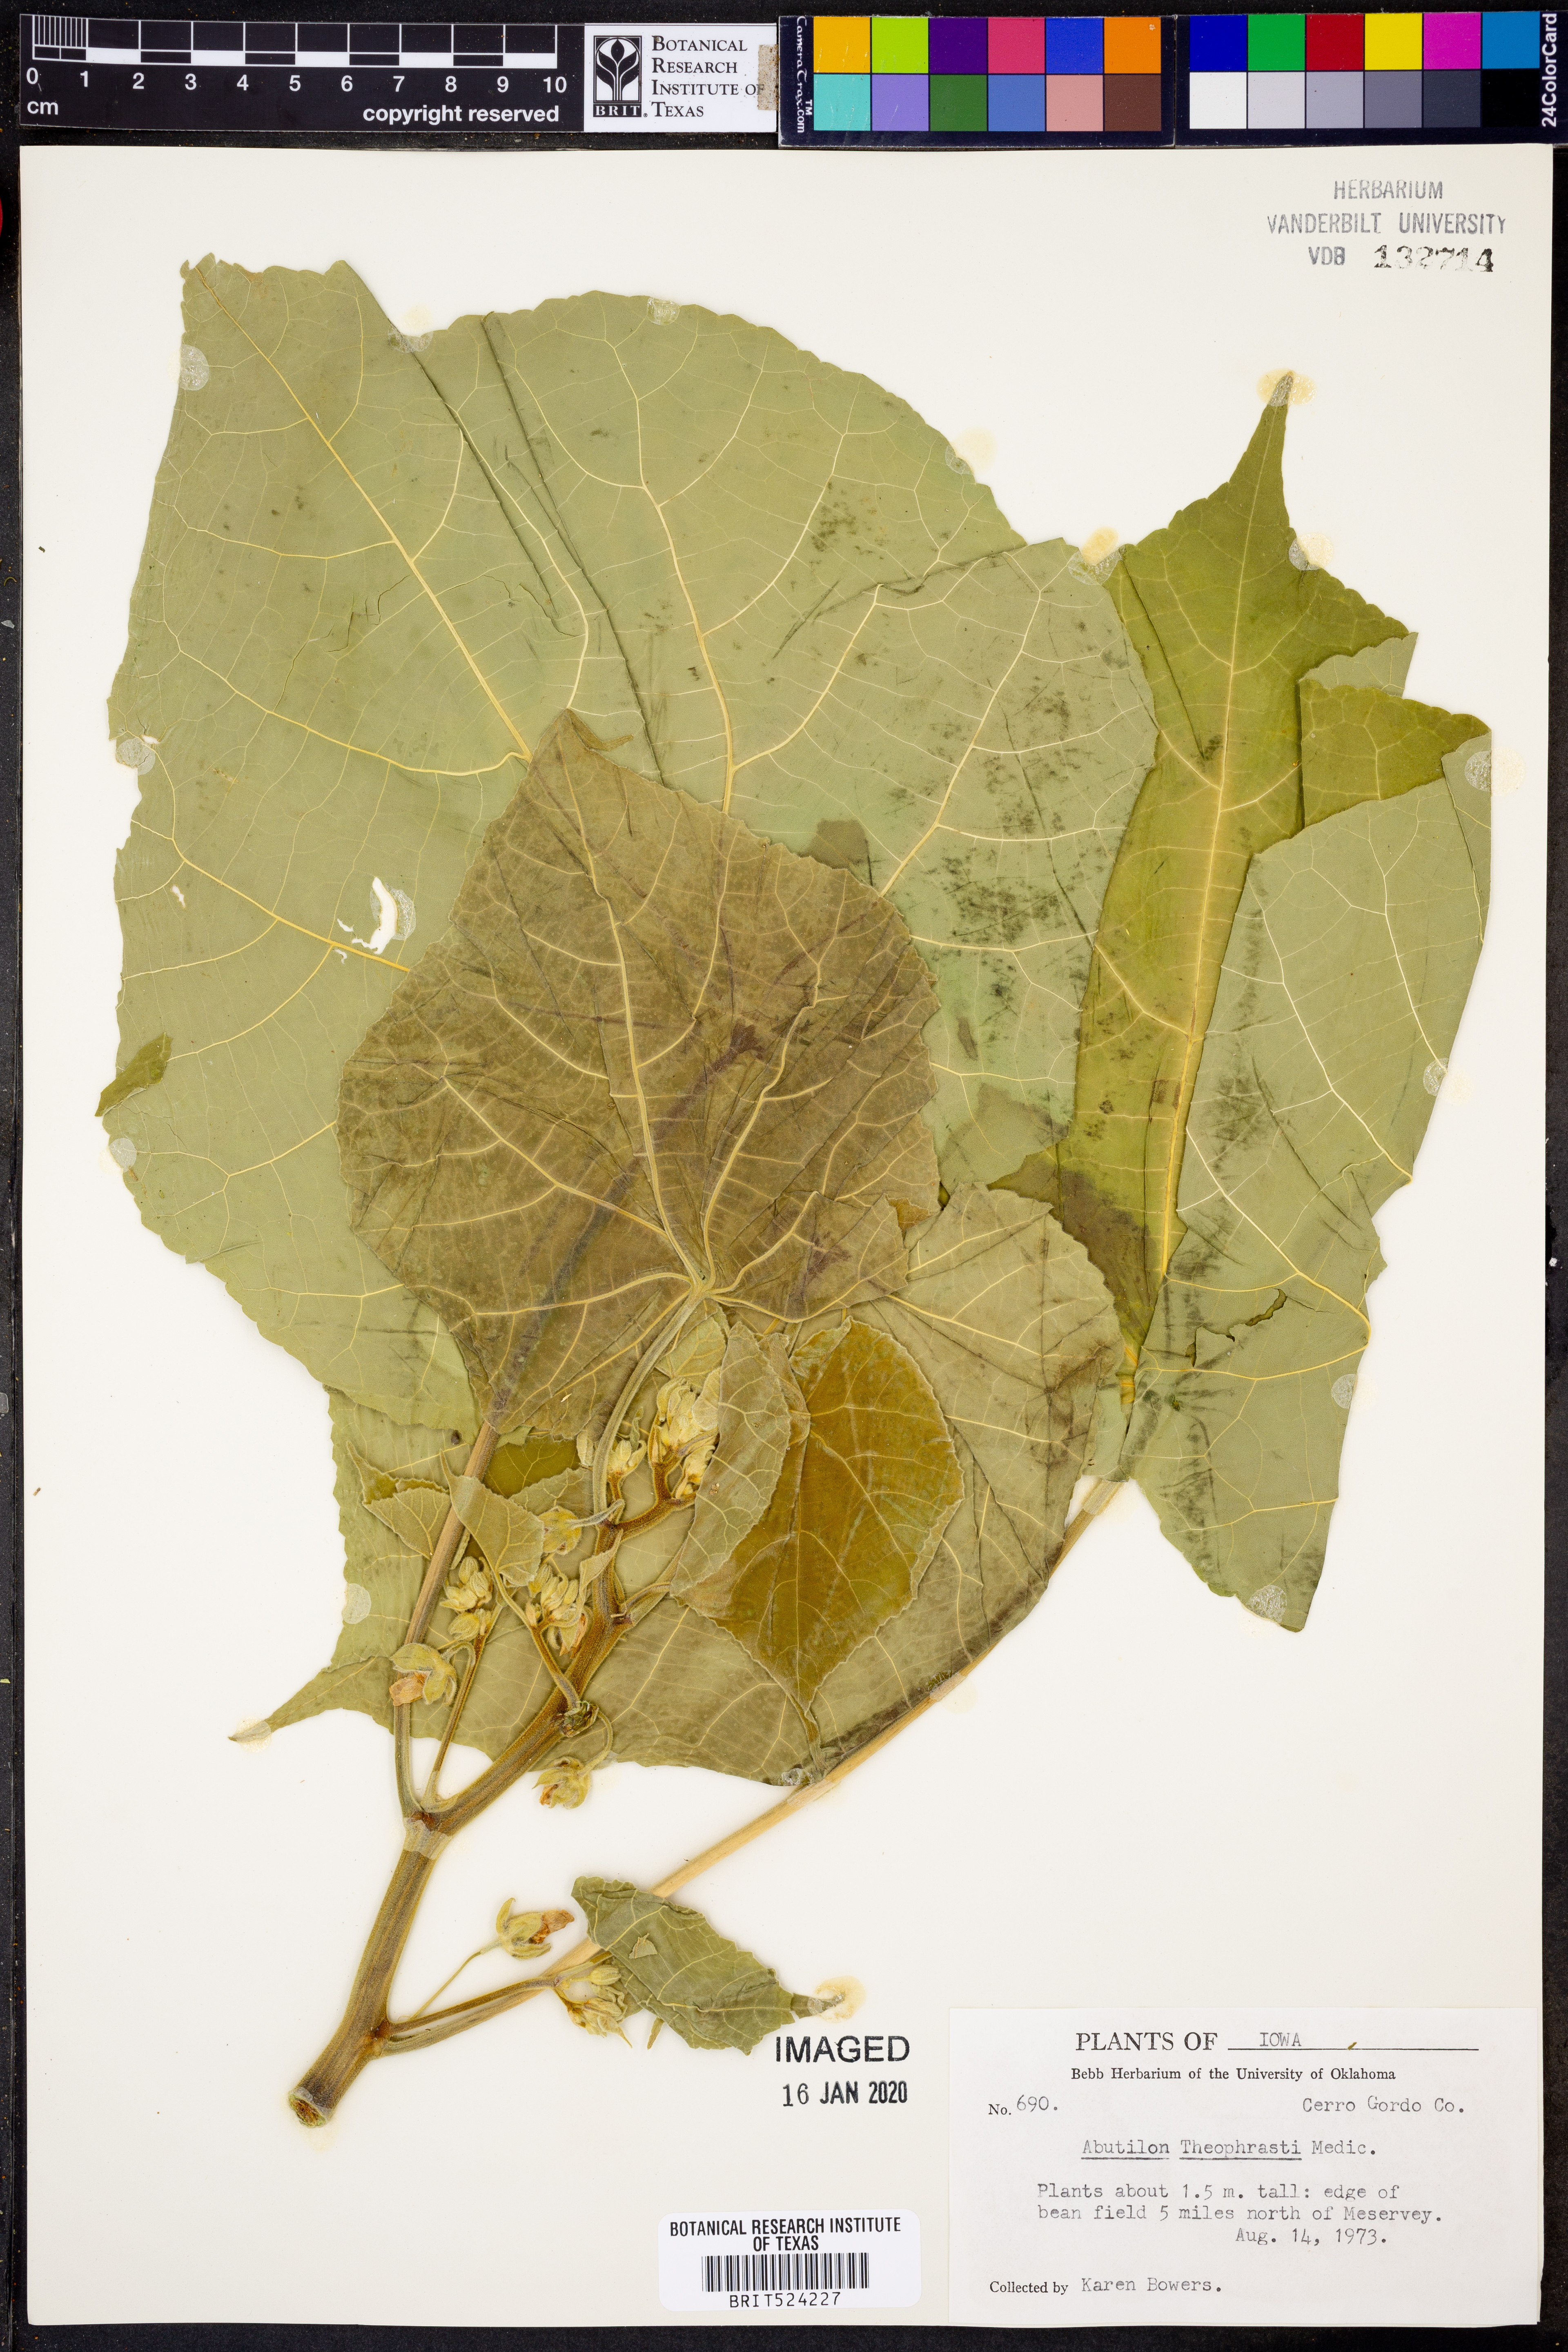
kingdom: Plantae
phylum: Tracheophyta
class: Magnoliopsida
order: Malvales
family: Malvaceae
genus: Abutilon
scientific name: Abutilon theophrasti
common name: Velvetleaf
